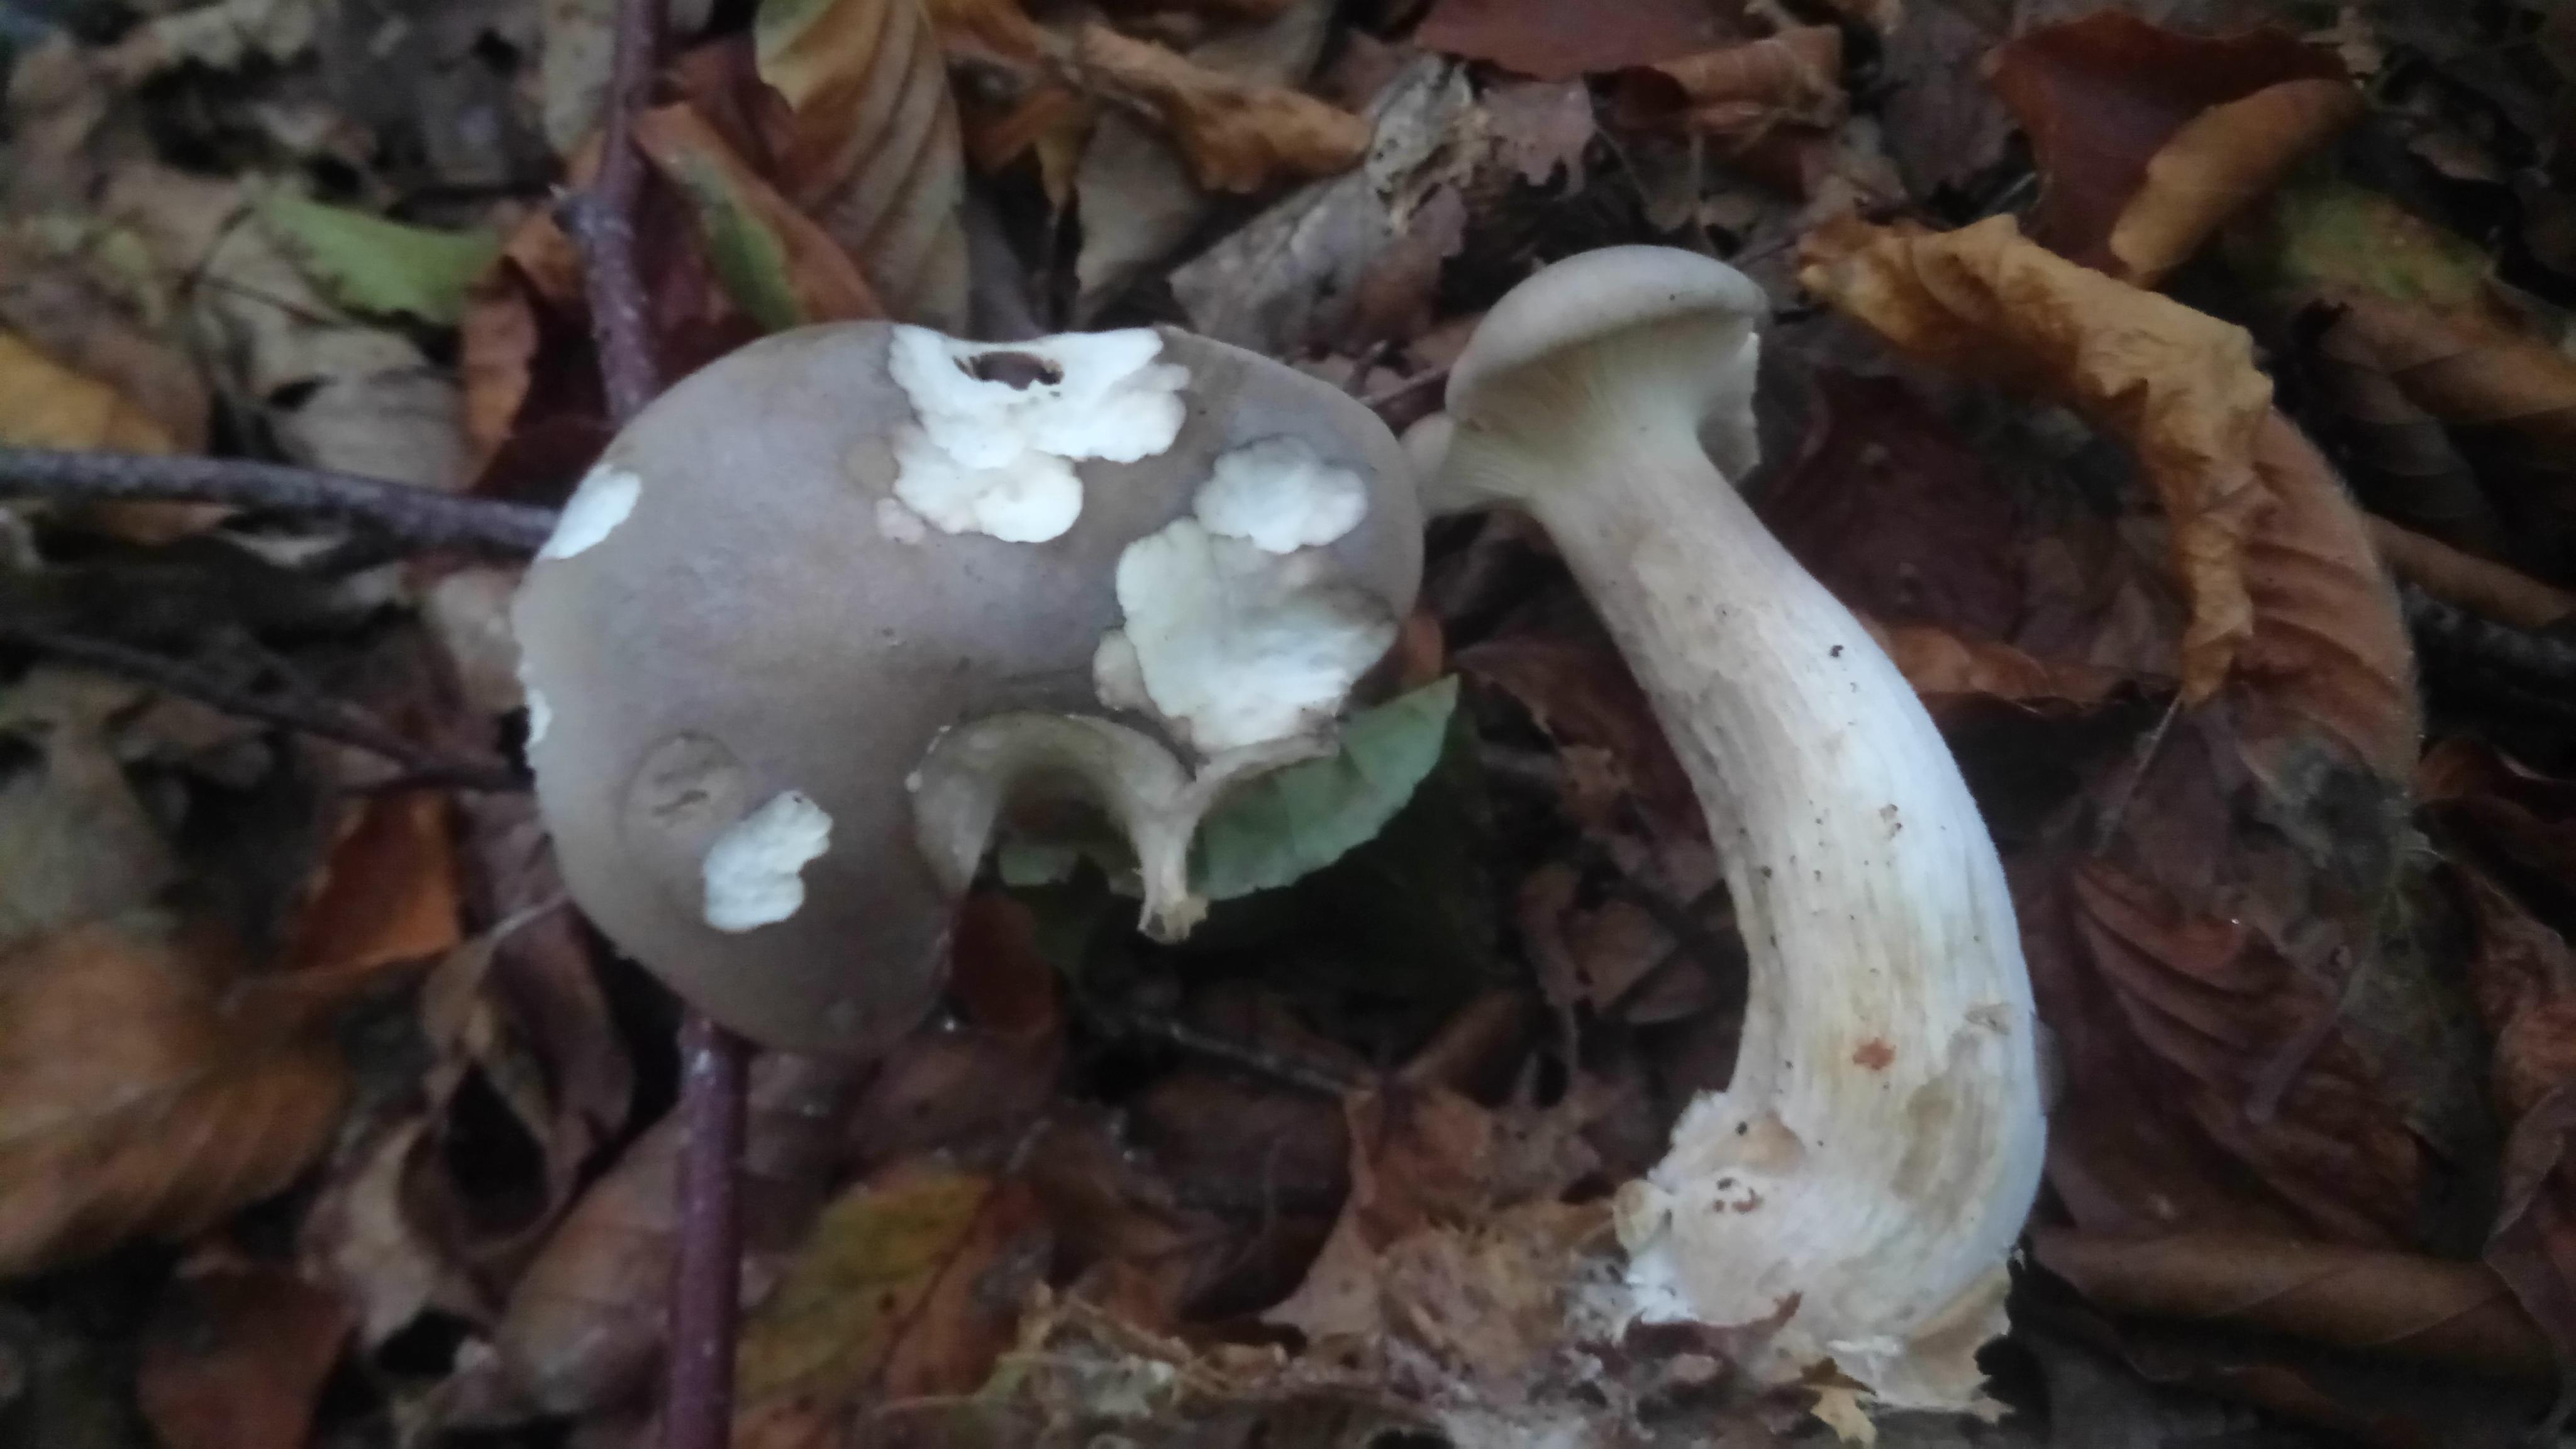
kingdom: Fungi
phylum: Basidiomycota
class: Agaricomycetes
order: Agaricales
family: Tricholomataceae
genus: Clitocybe
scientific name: Clitocybe nebularis
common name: tåge-tragthat
